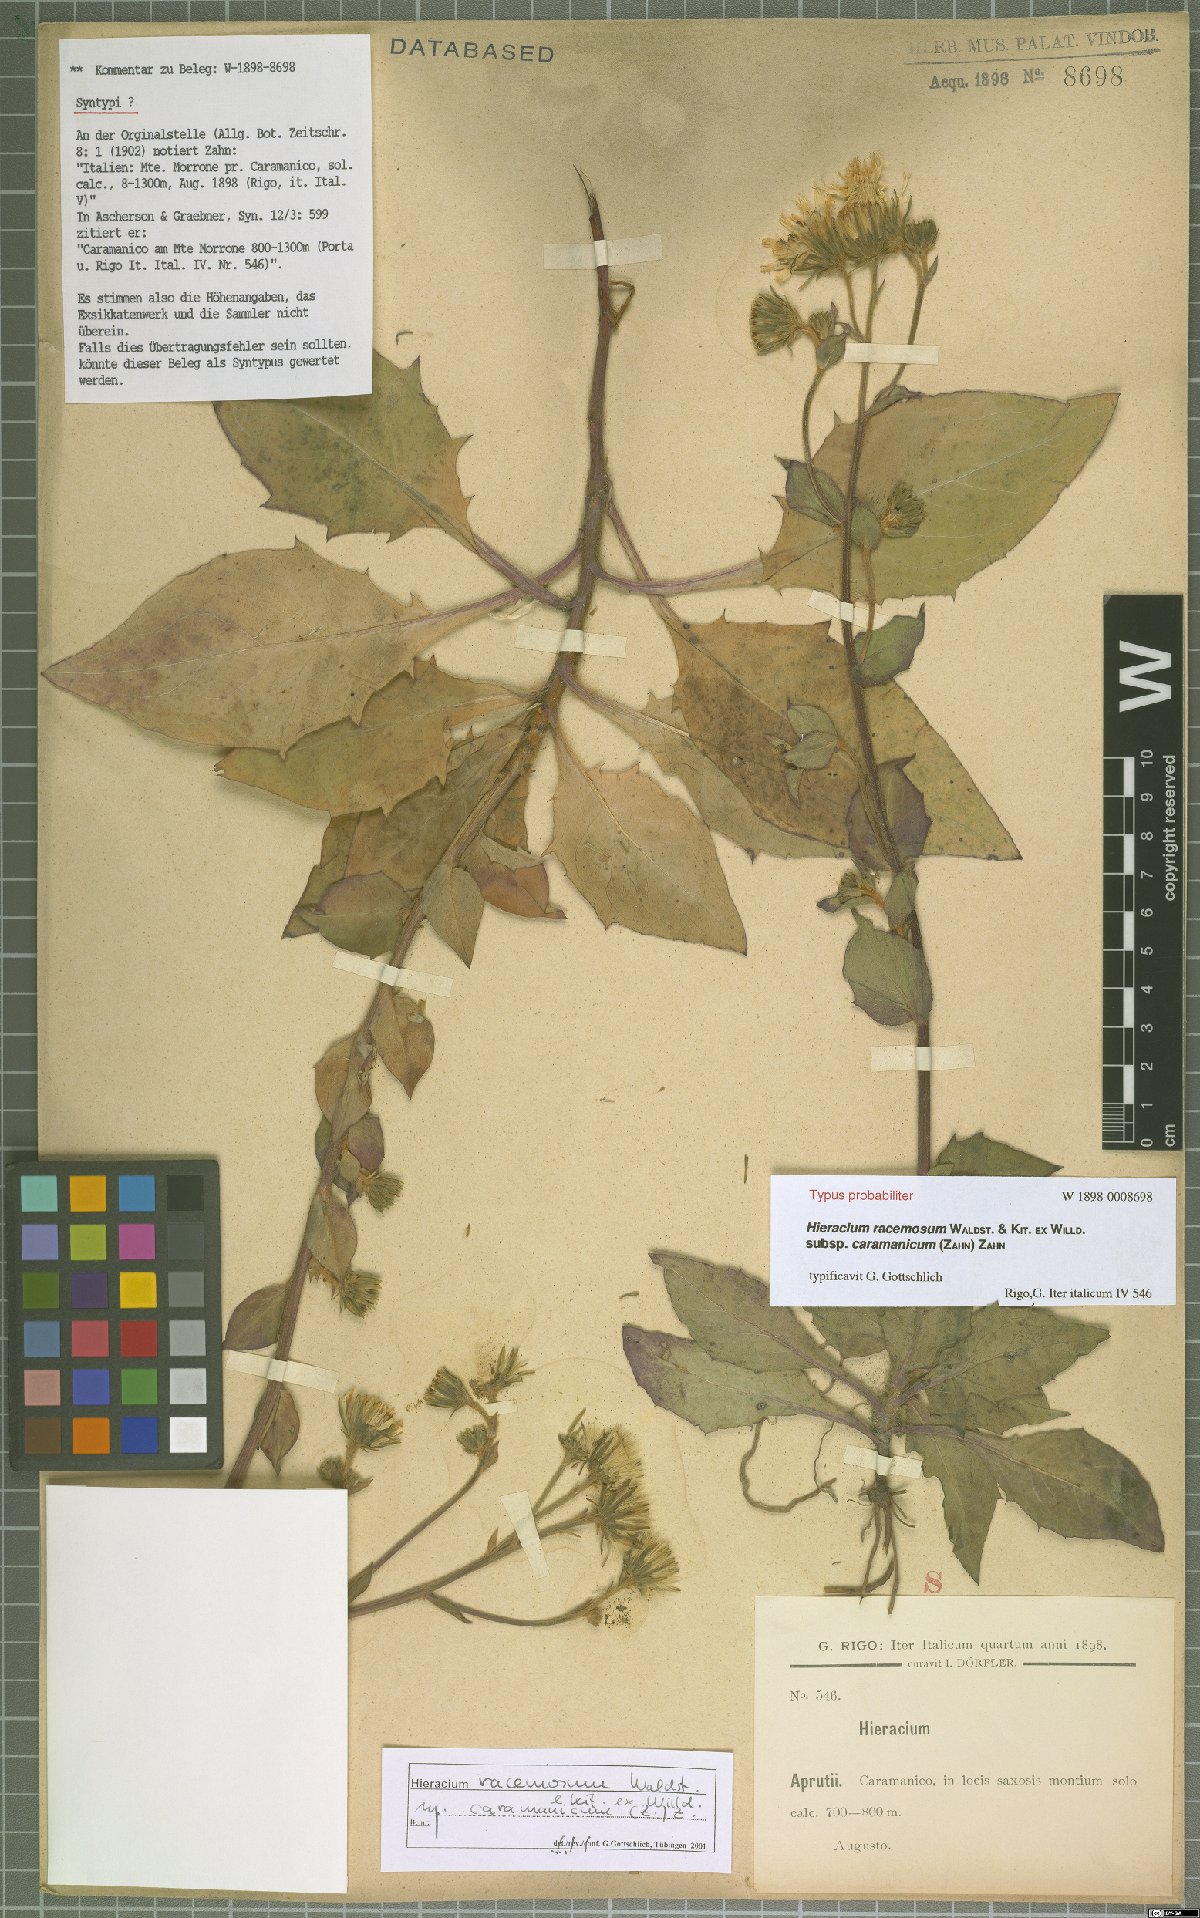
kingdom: Plantae
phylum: Tracheophyta
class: Magnoliopsida
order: Asterales
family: Asteraceae
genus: Hieracium
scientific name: Hieracium racemosum
